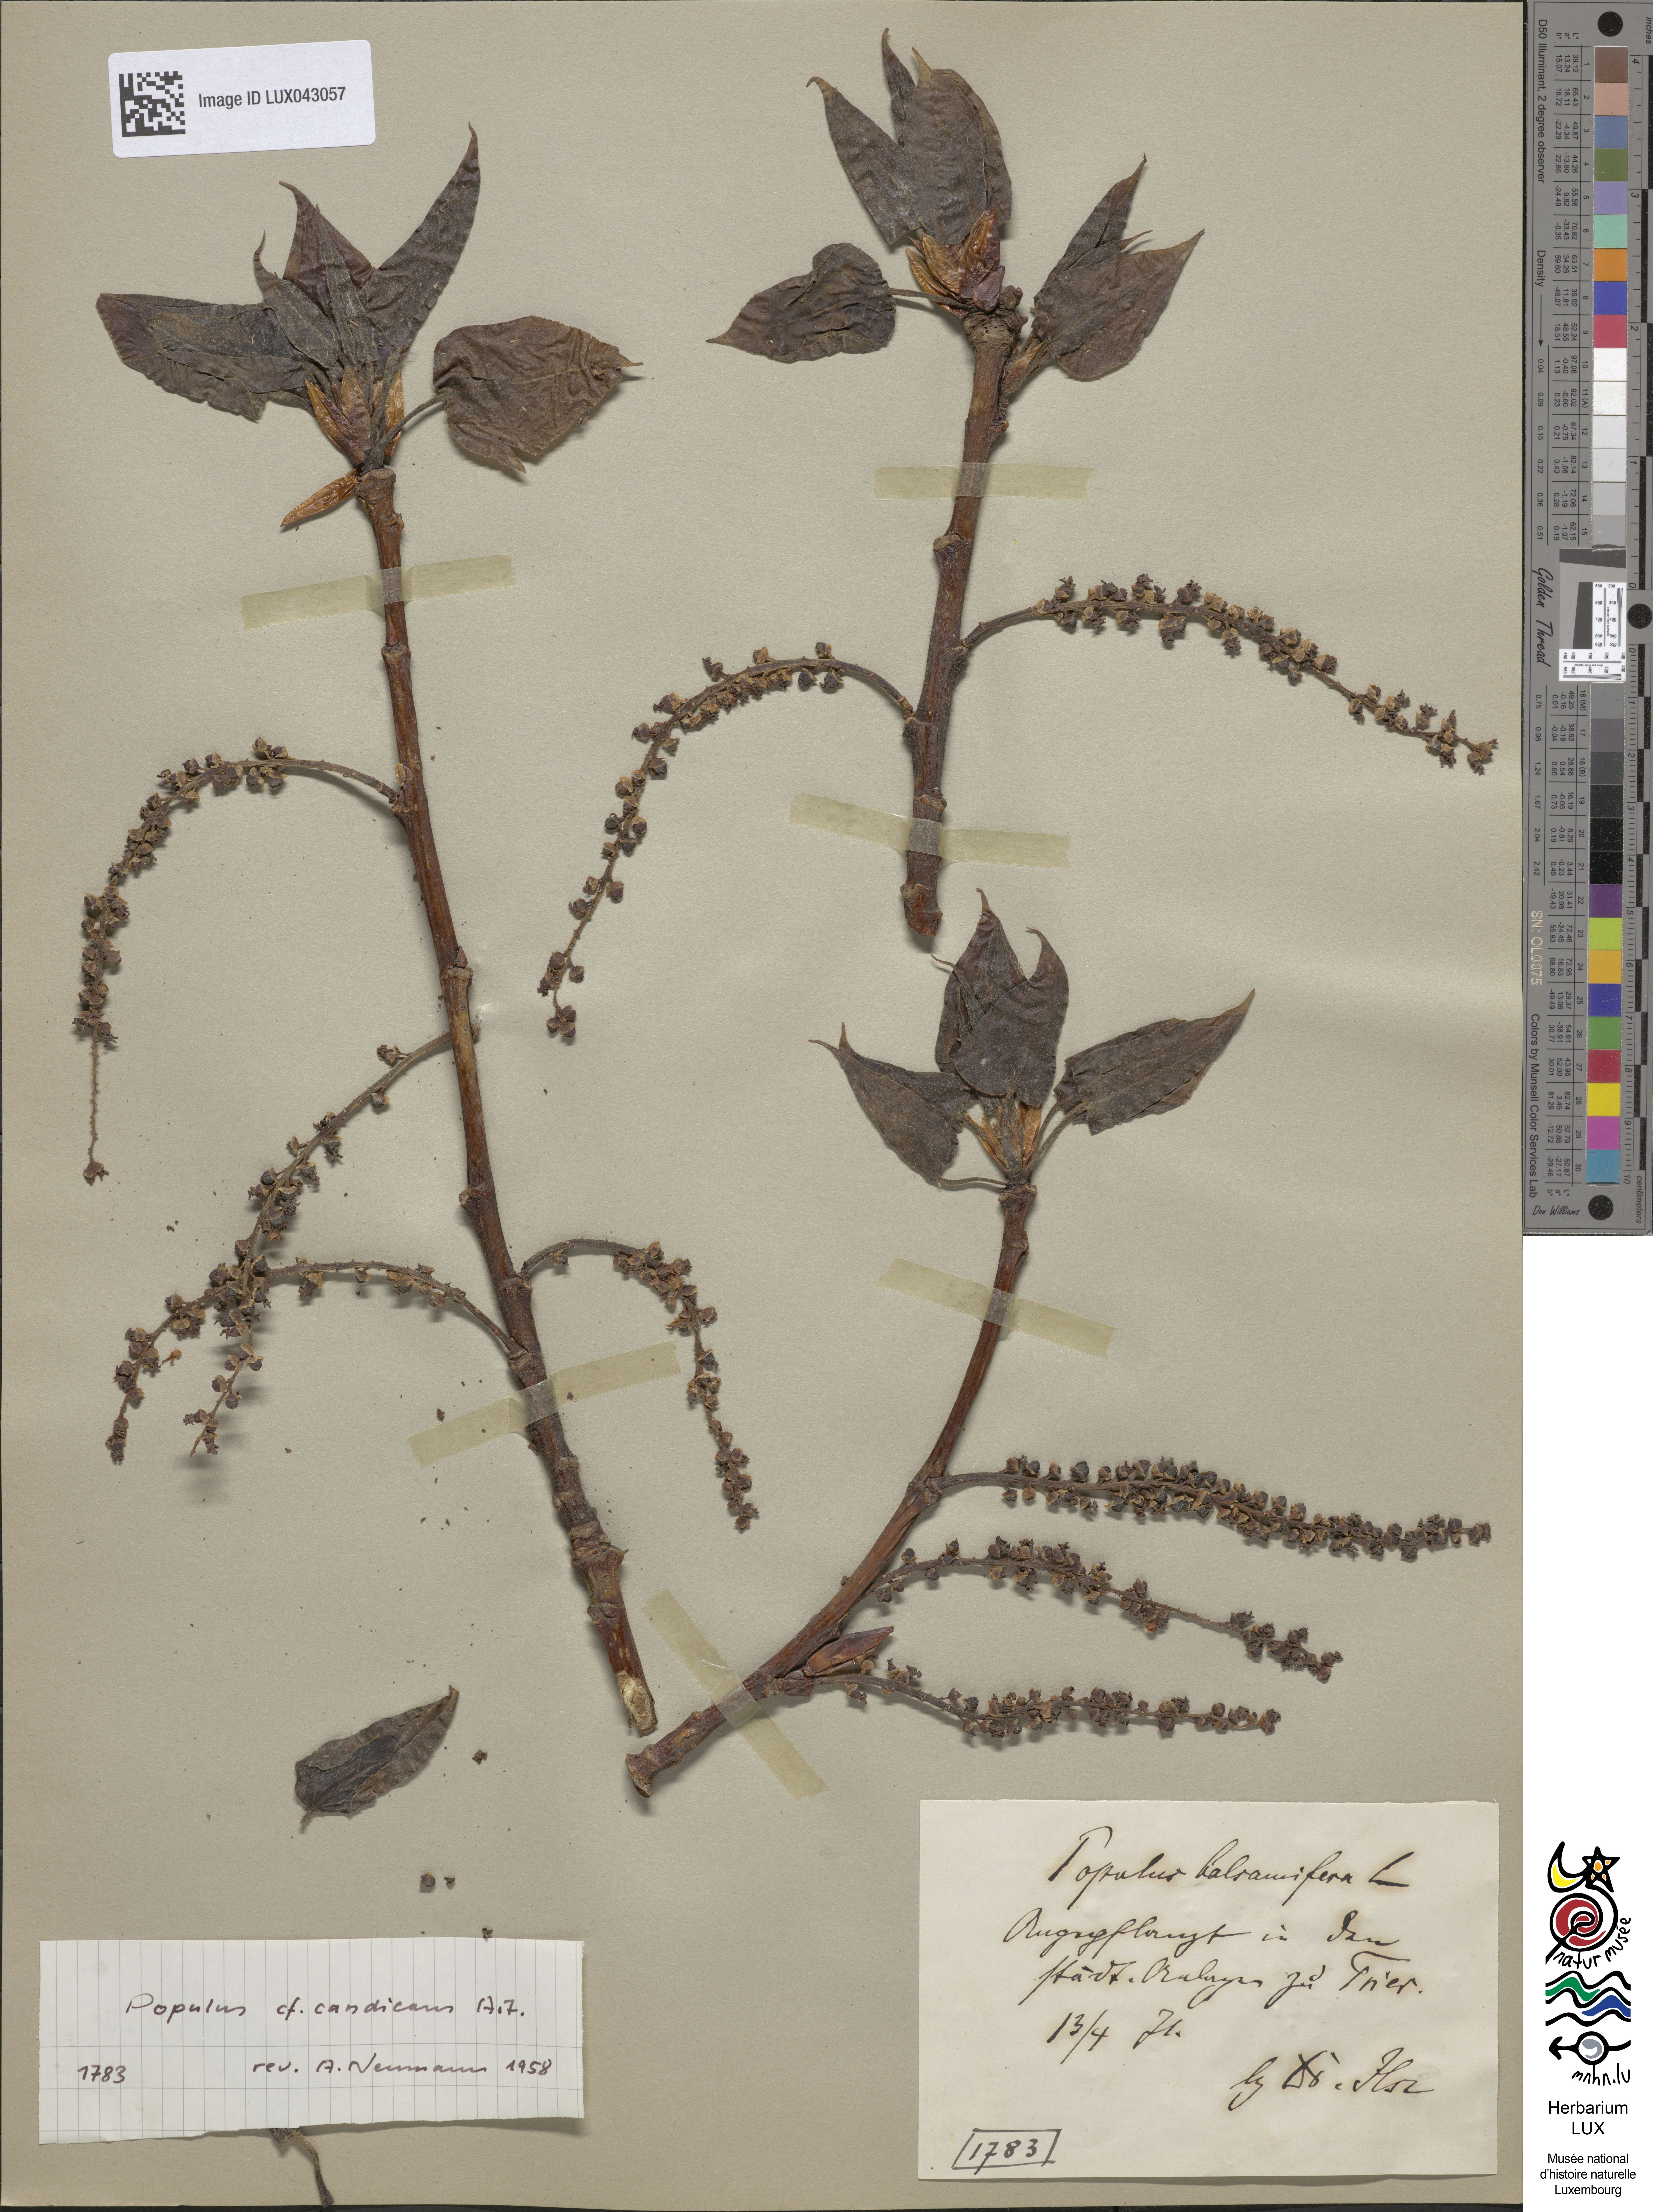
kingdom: Plantae
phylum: Tracheophyta
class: Magnoliopsida
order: Malpighiales
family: Salicaceae
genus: Populus
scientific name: Populus balsamifera
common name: Balsam poplar
